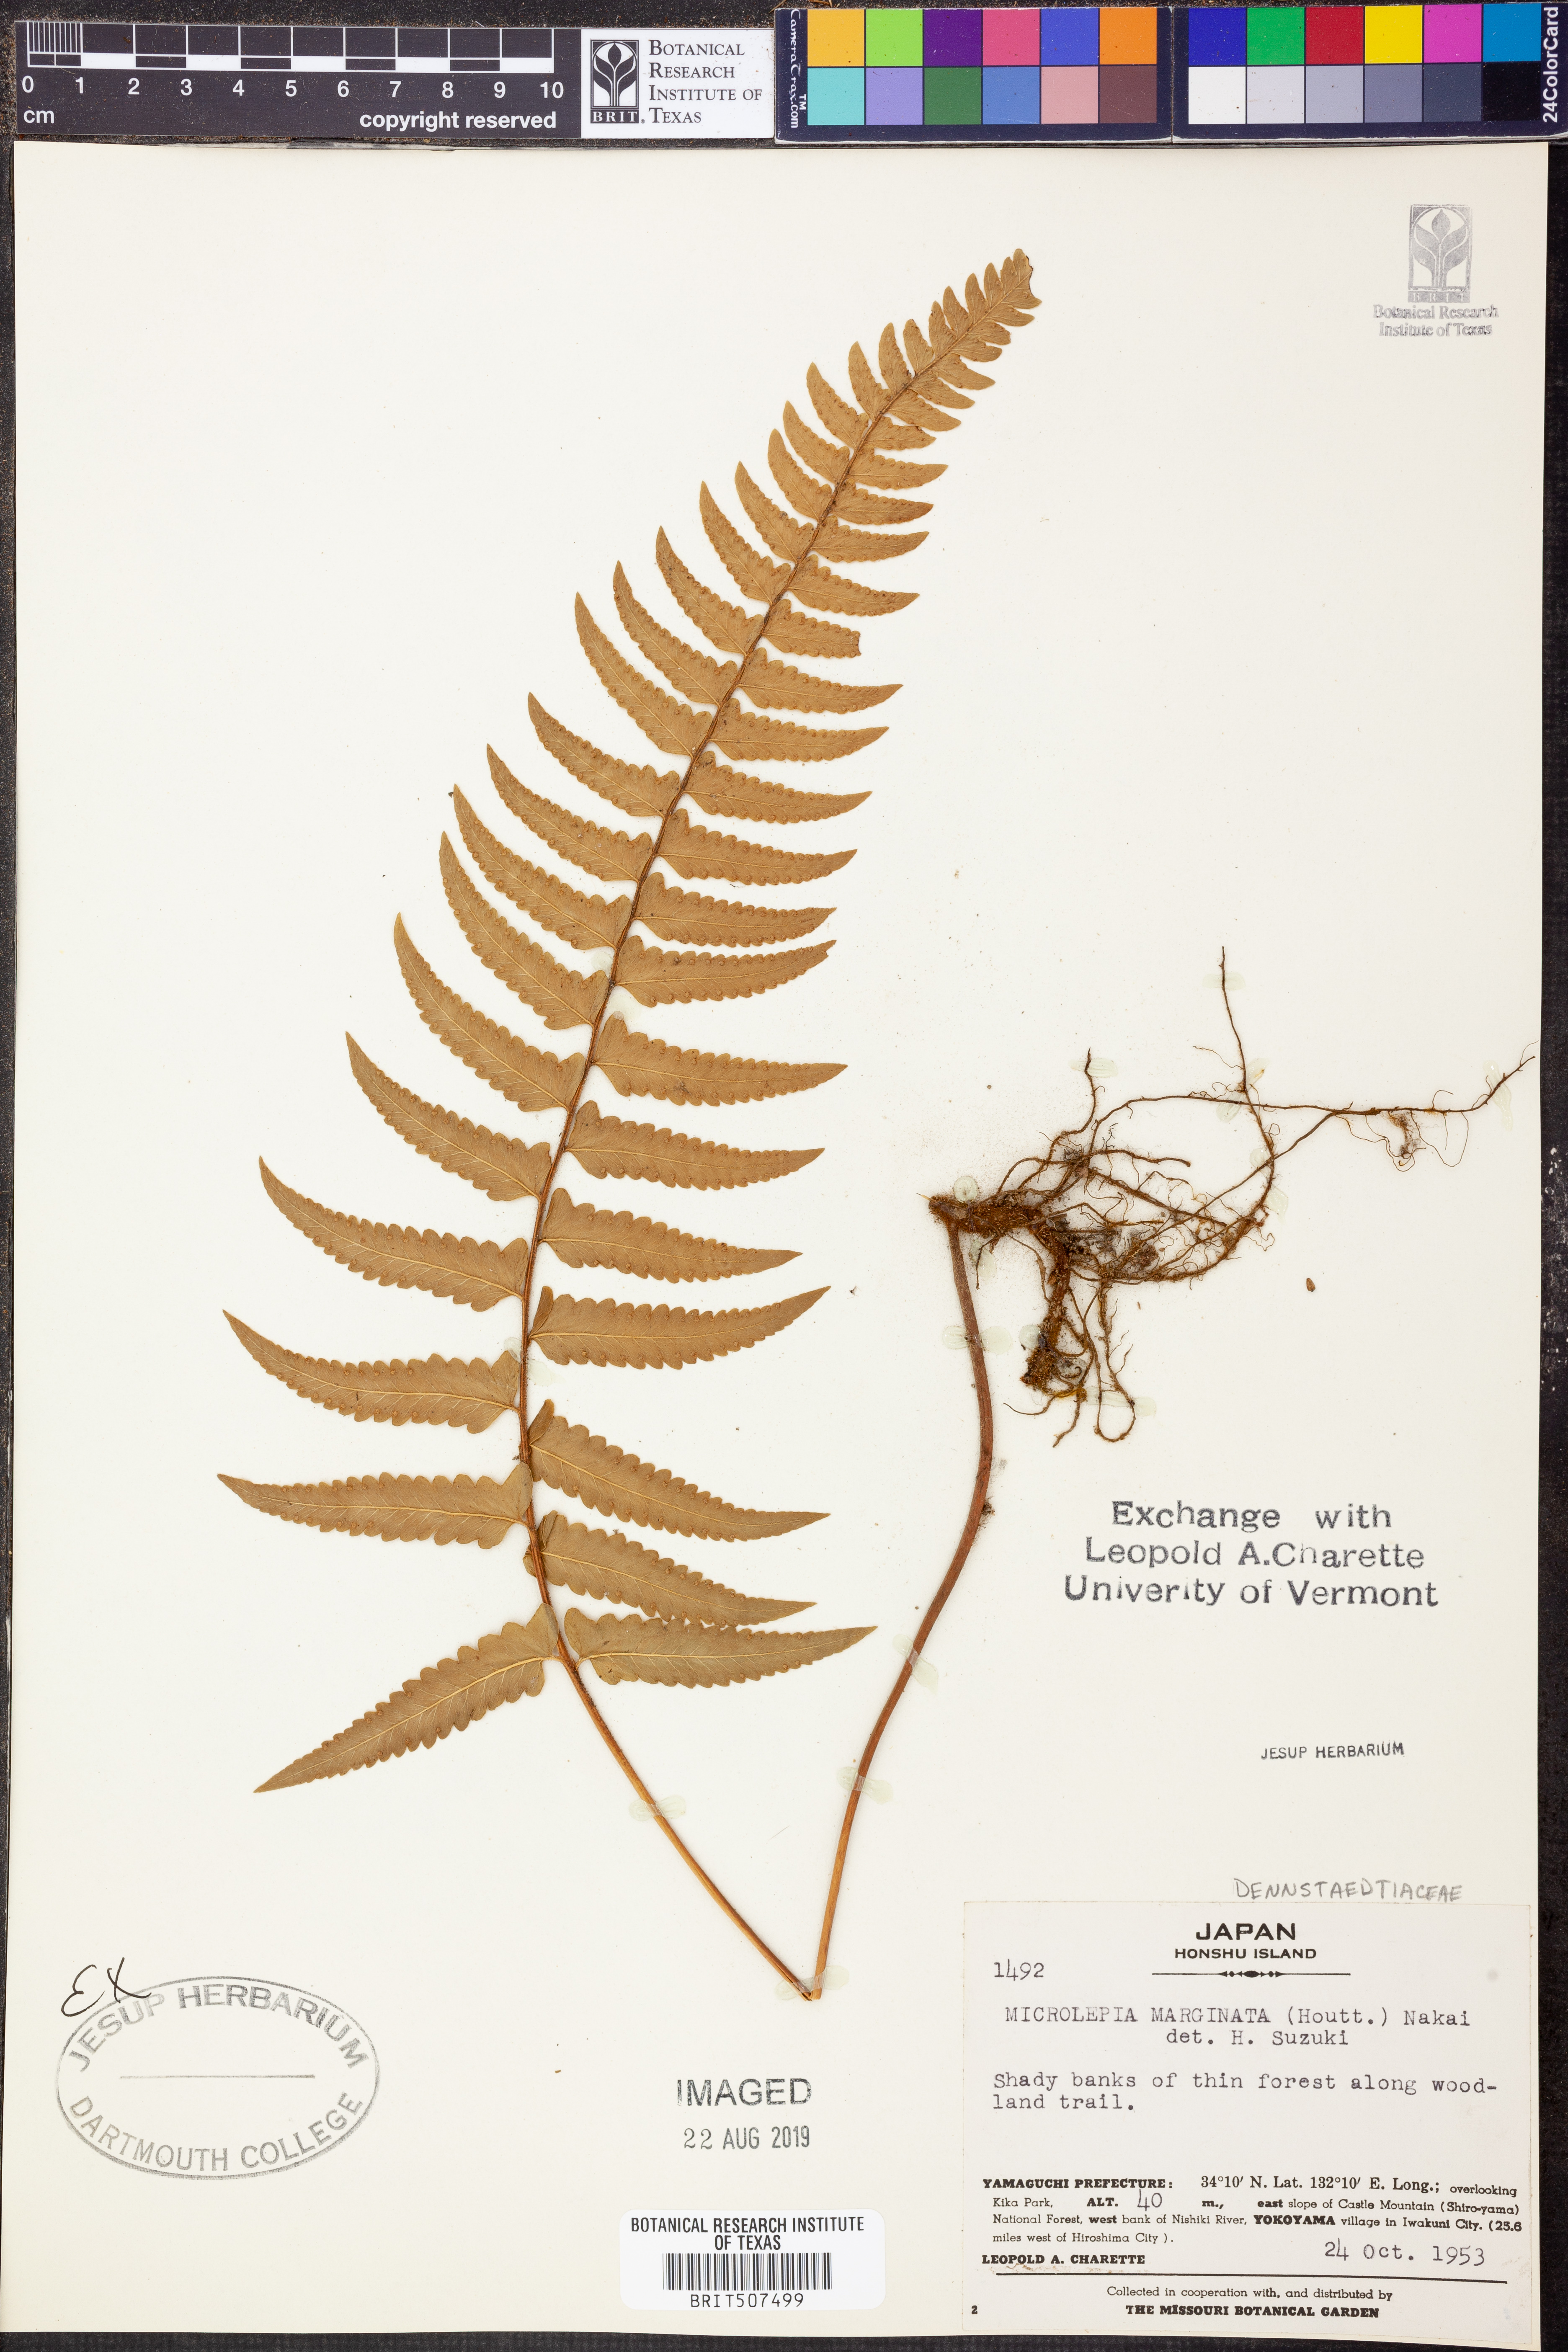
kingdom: Plantae
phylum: Tracheophyta
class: Polypodiopsida
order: Polypodiales
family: Dennstaedtiaceae
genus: Microlepia
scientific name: Microlepia marginata
